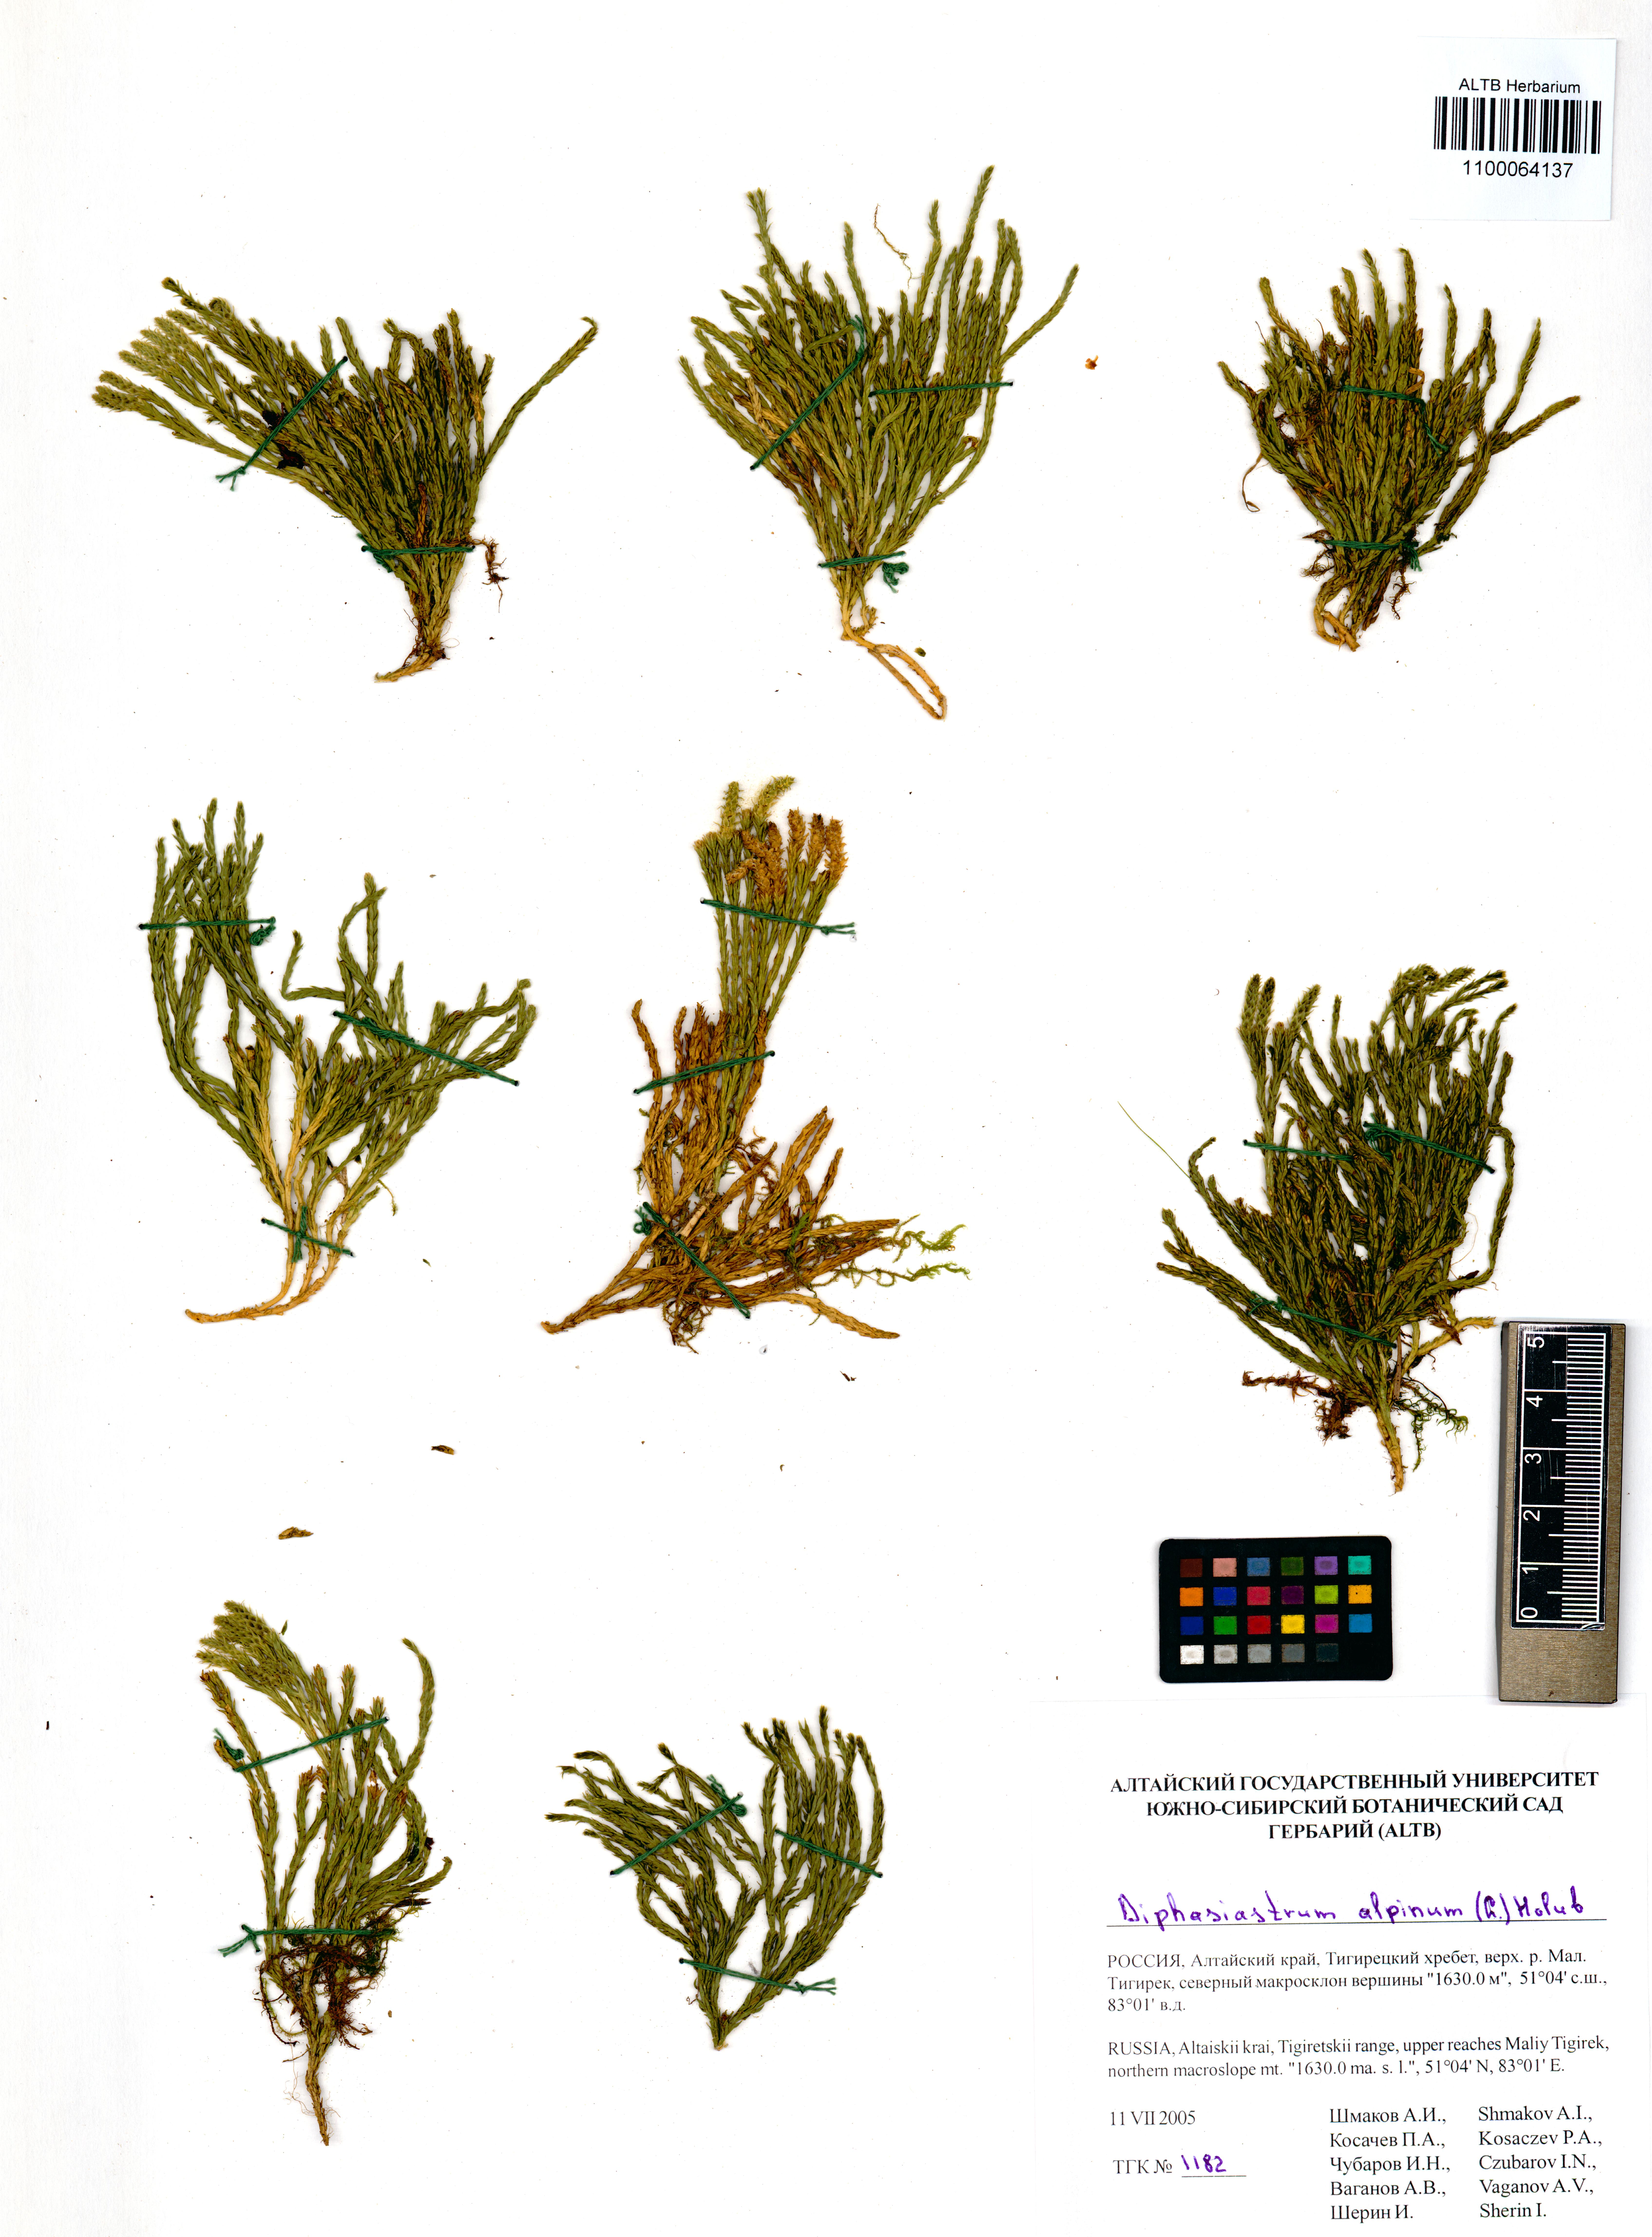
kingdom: Plantae
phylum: Tracheophyta
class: Lycopodiopsida
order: Lycopodiales
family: Lycopodiaceae
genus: Diphasiastrum
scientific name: Diphasiastrum alpinum
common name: Alpine clubmoss
